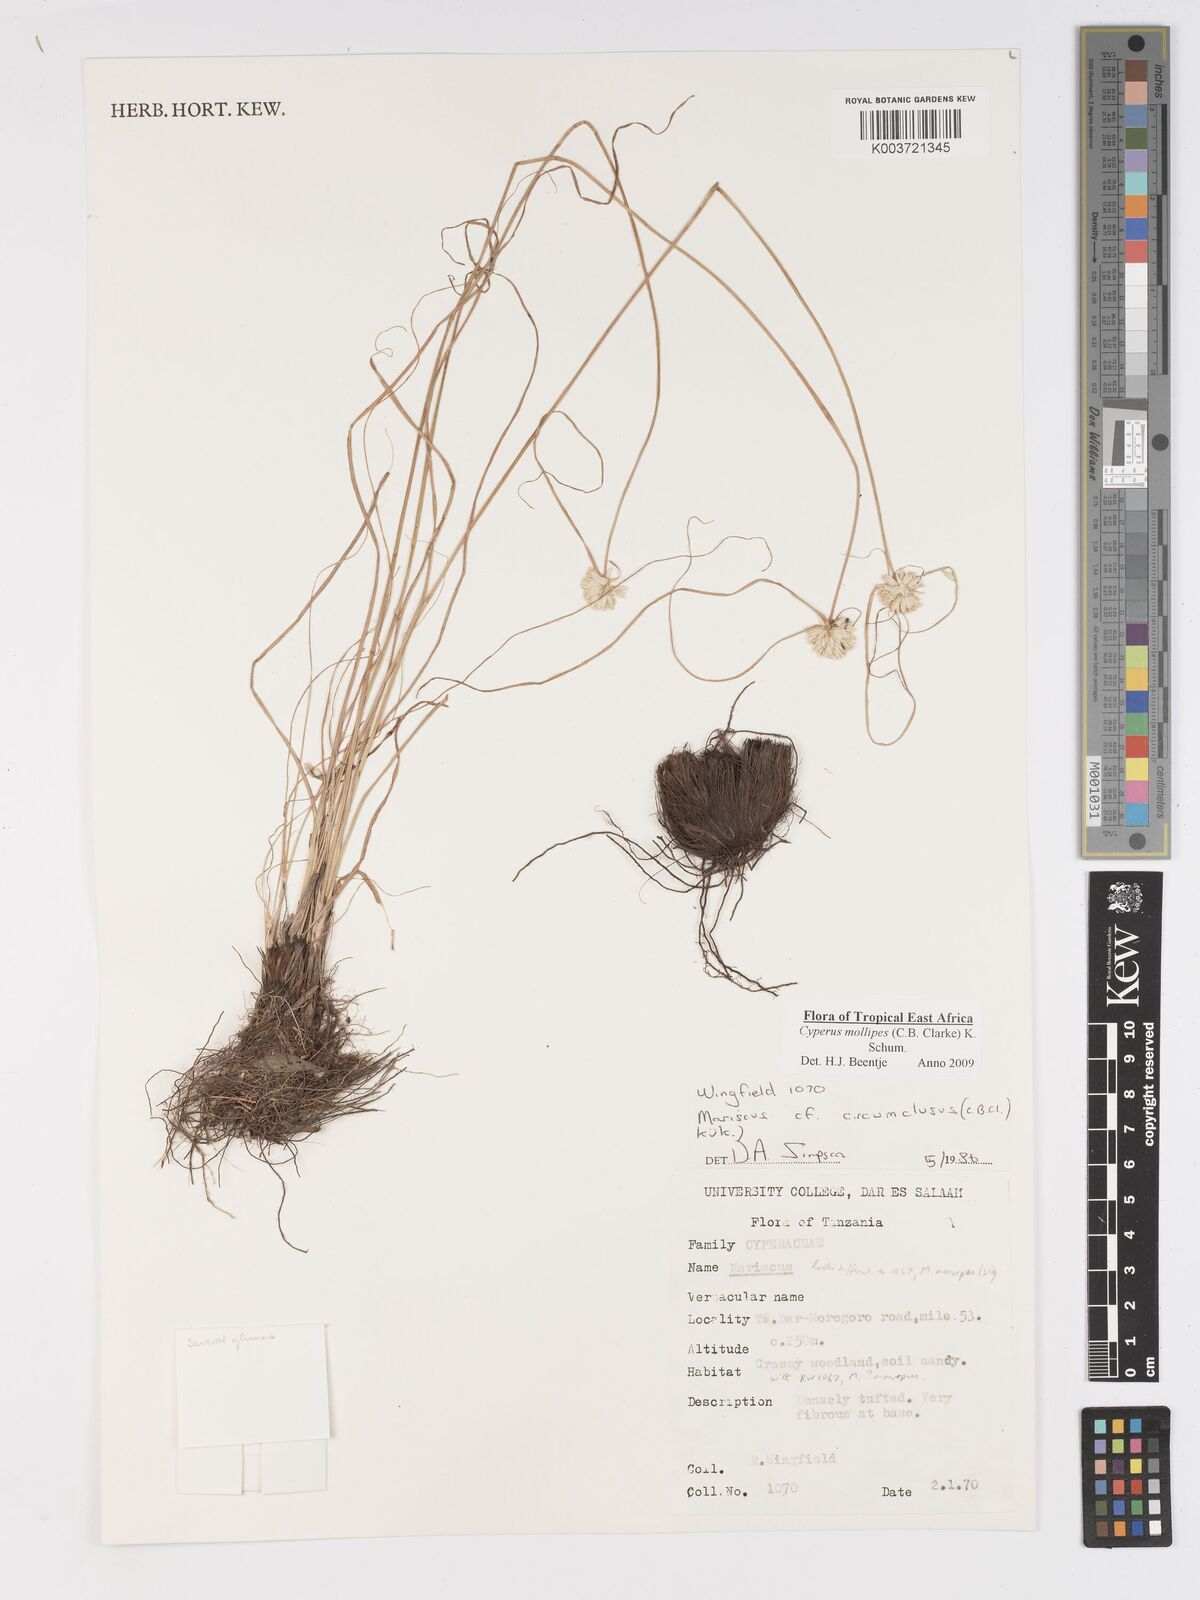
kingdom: Plantae
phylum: Tracheophyta
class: Liliopsida
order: Poales
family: Cyperaceae
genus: Cyperus
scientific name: Cyperus mollipes
